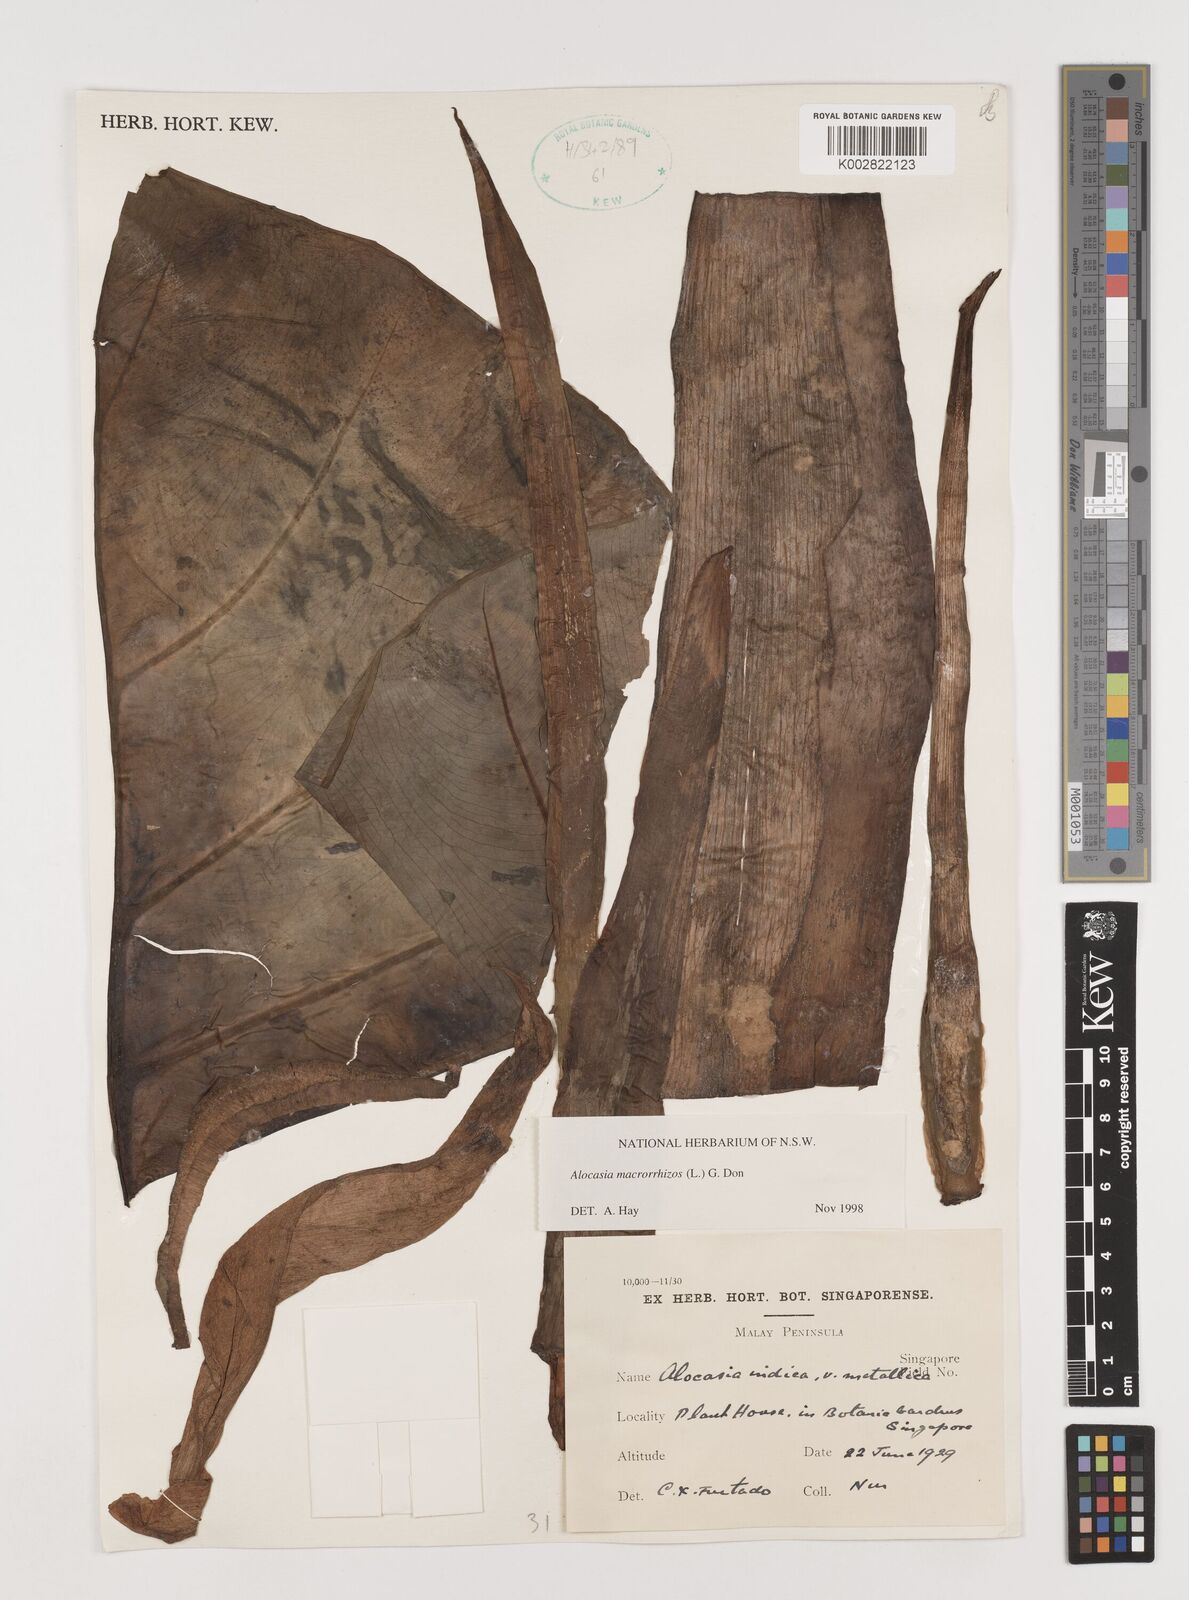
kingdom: Plantae
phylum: Tracheophyta
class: Liliopsida
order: Alismatales
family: Araceae
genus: Alocasia
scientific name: Alocasia macrorrhizos
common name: Giant taro
